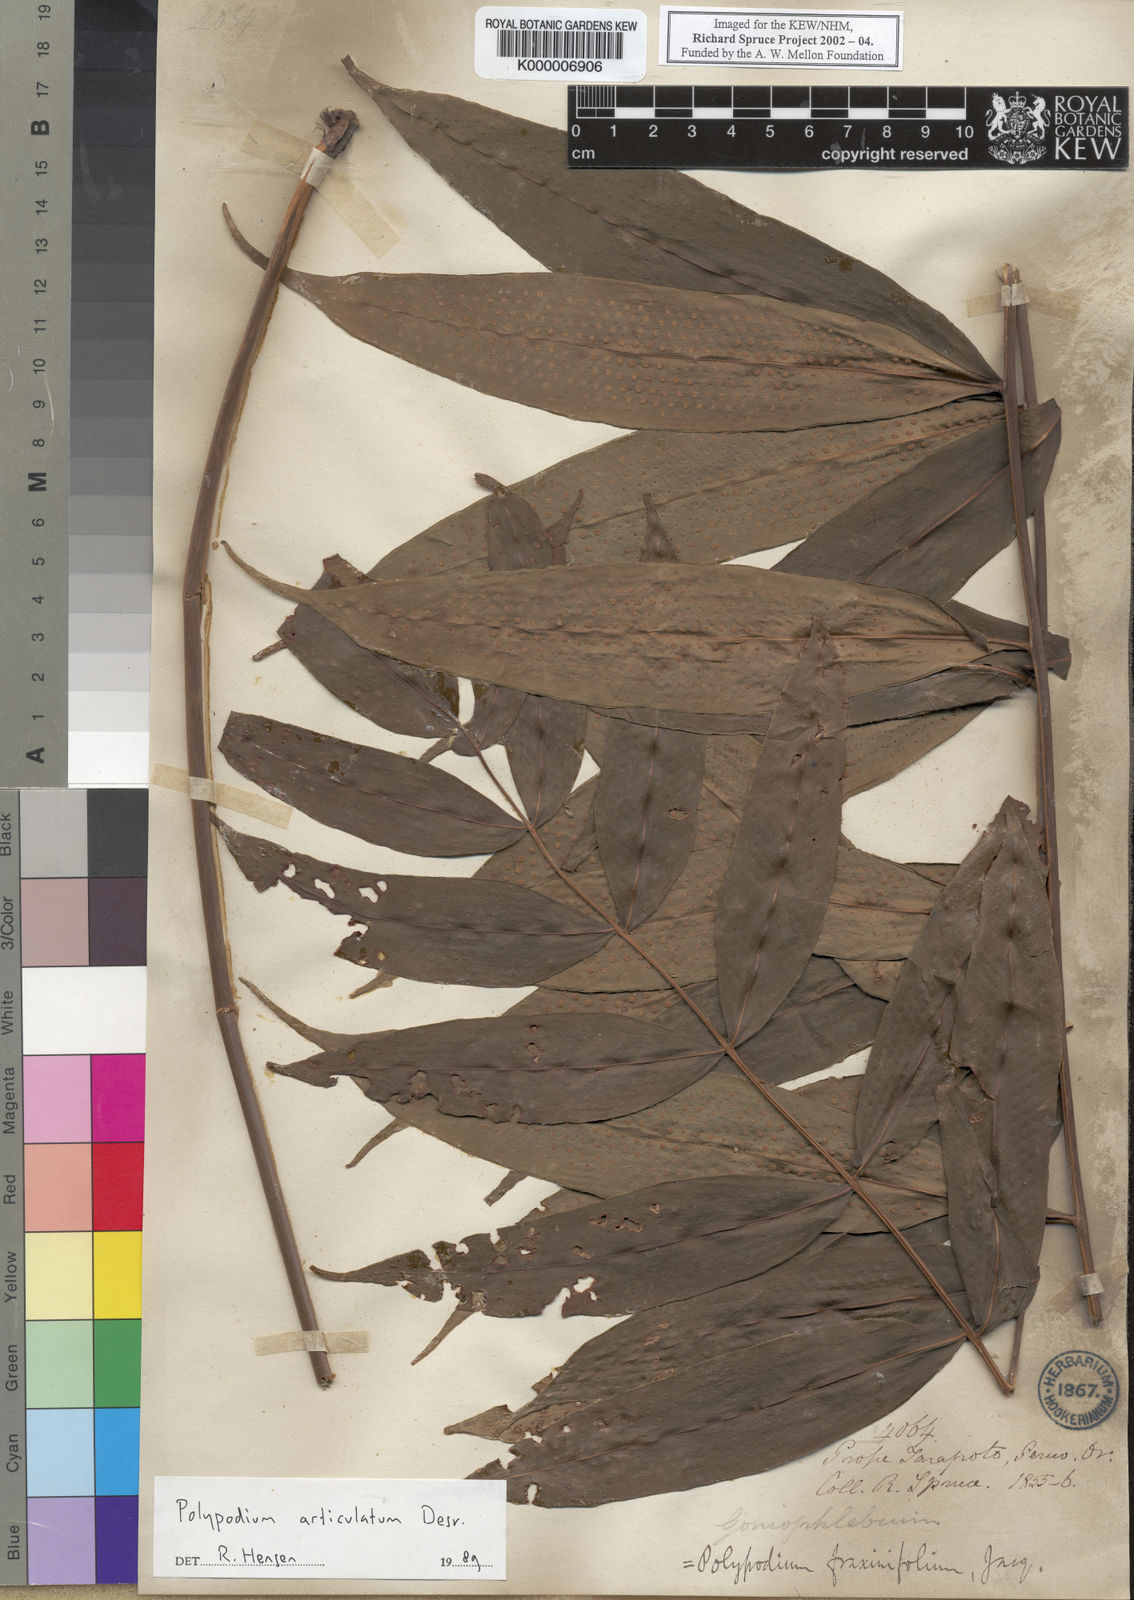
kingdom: Plantae
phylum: Tracheophyta
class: Polypodiopsida
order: Polypodiales
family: Polypodiaceae
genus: Serpocaulon
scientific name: Serpocaulon articulatum
